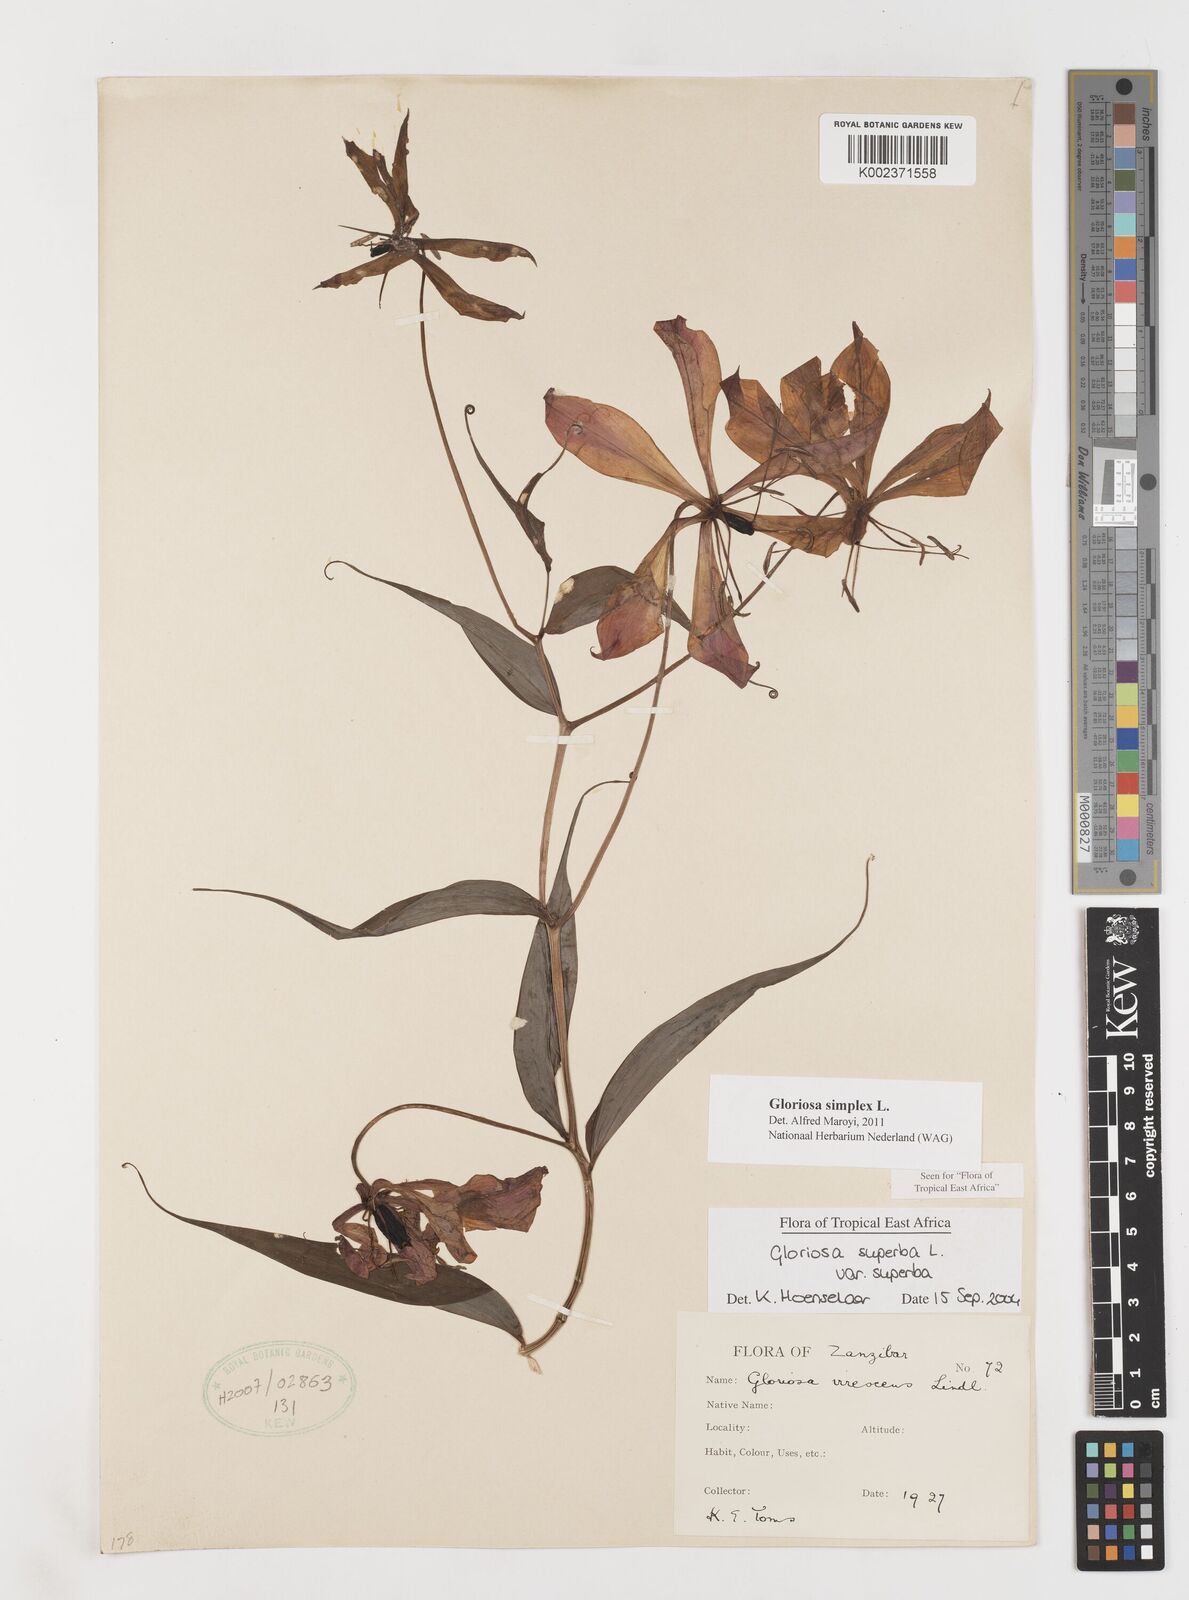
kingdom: Plantae
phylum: Tracheophyta
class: Liliopsida
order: Liliales
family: Colchicaceae
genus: Gloriosa
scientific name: Gloriosa simplex
